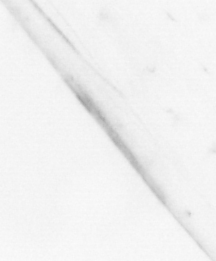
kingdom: Animalia
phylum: Chaetognatha
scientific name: Chaetognatha
